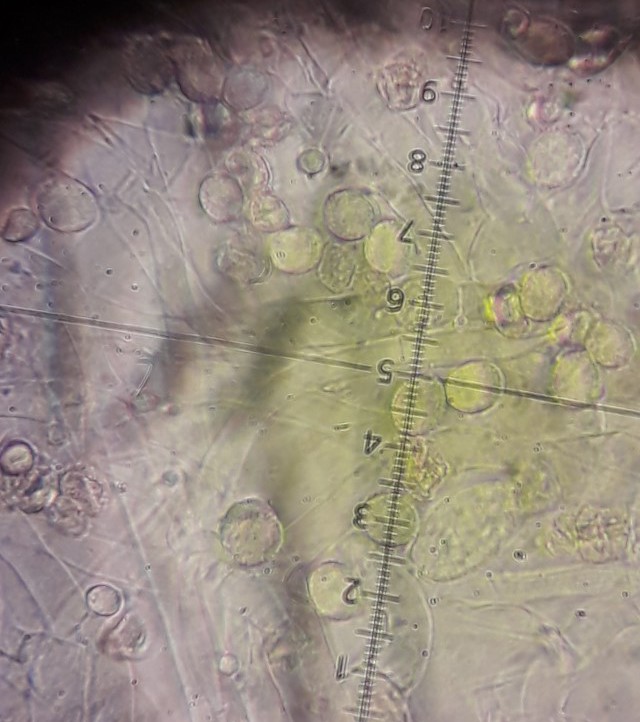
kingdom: Fungi
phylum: Basidiomycota
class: Agaricomycetes
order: Agaricales
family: Crepidotaceae
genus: Crepidotus
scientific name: Crepidotus cesatii
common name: almindelig muslingesvamp
